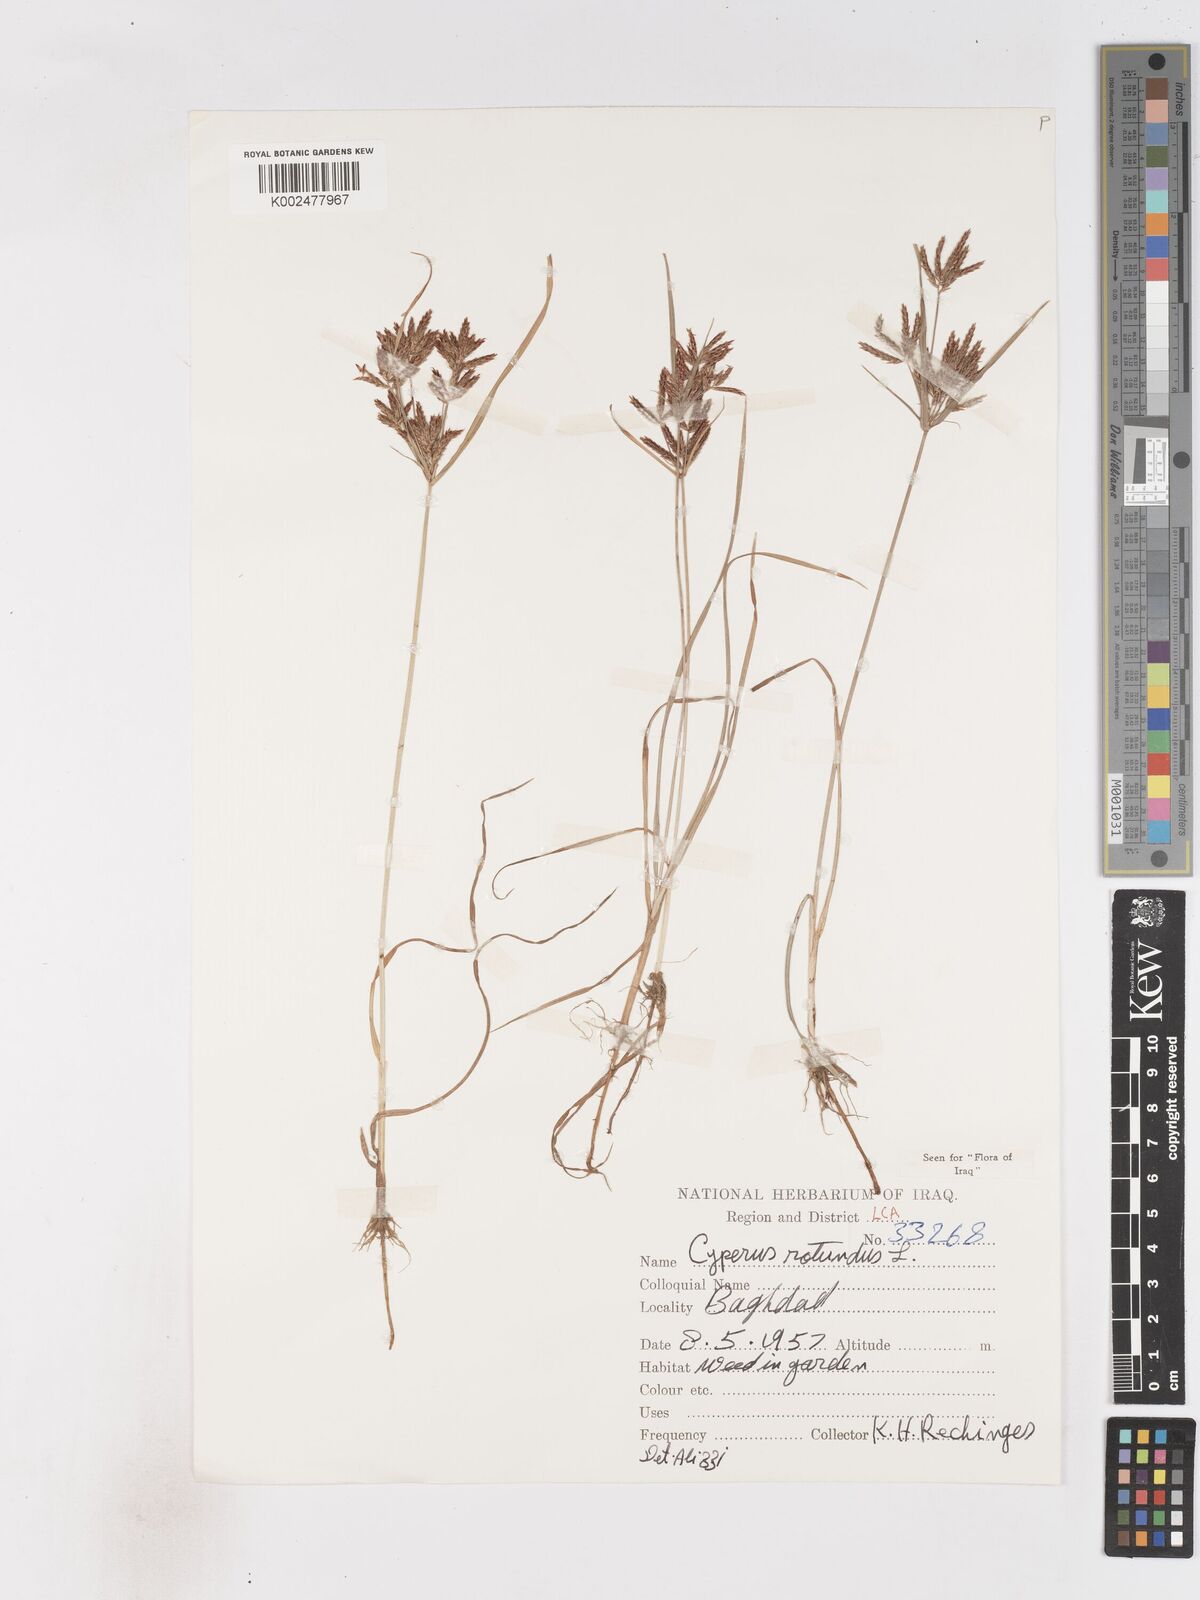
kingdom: Plantae
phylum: Tracheophyta
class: Liliopsida
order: Poales
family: Cyperaceae
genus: Cyperus
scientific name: Cyperus rotundus
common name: Nutgrass
